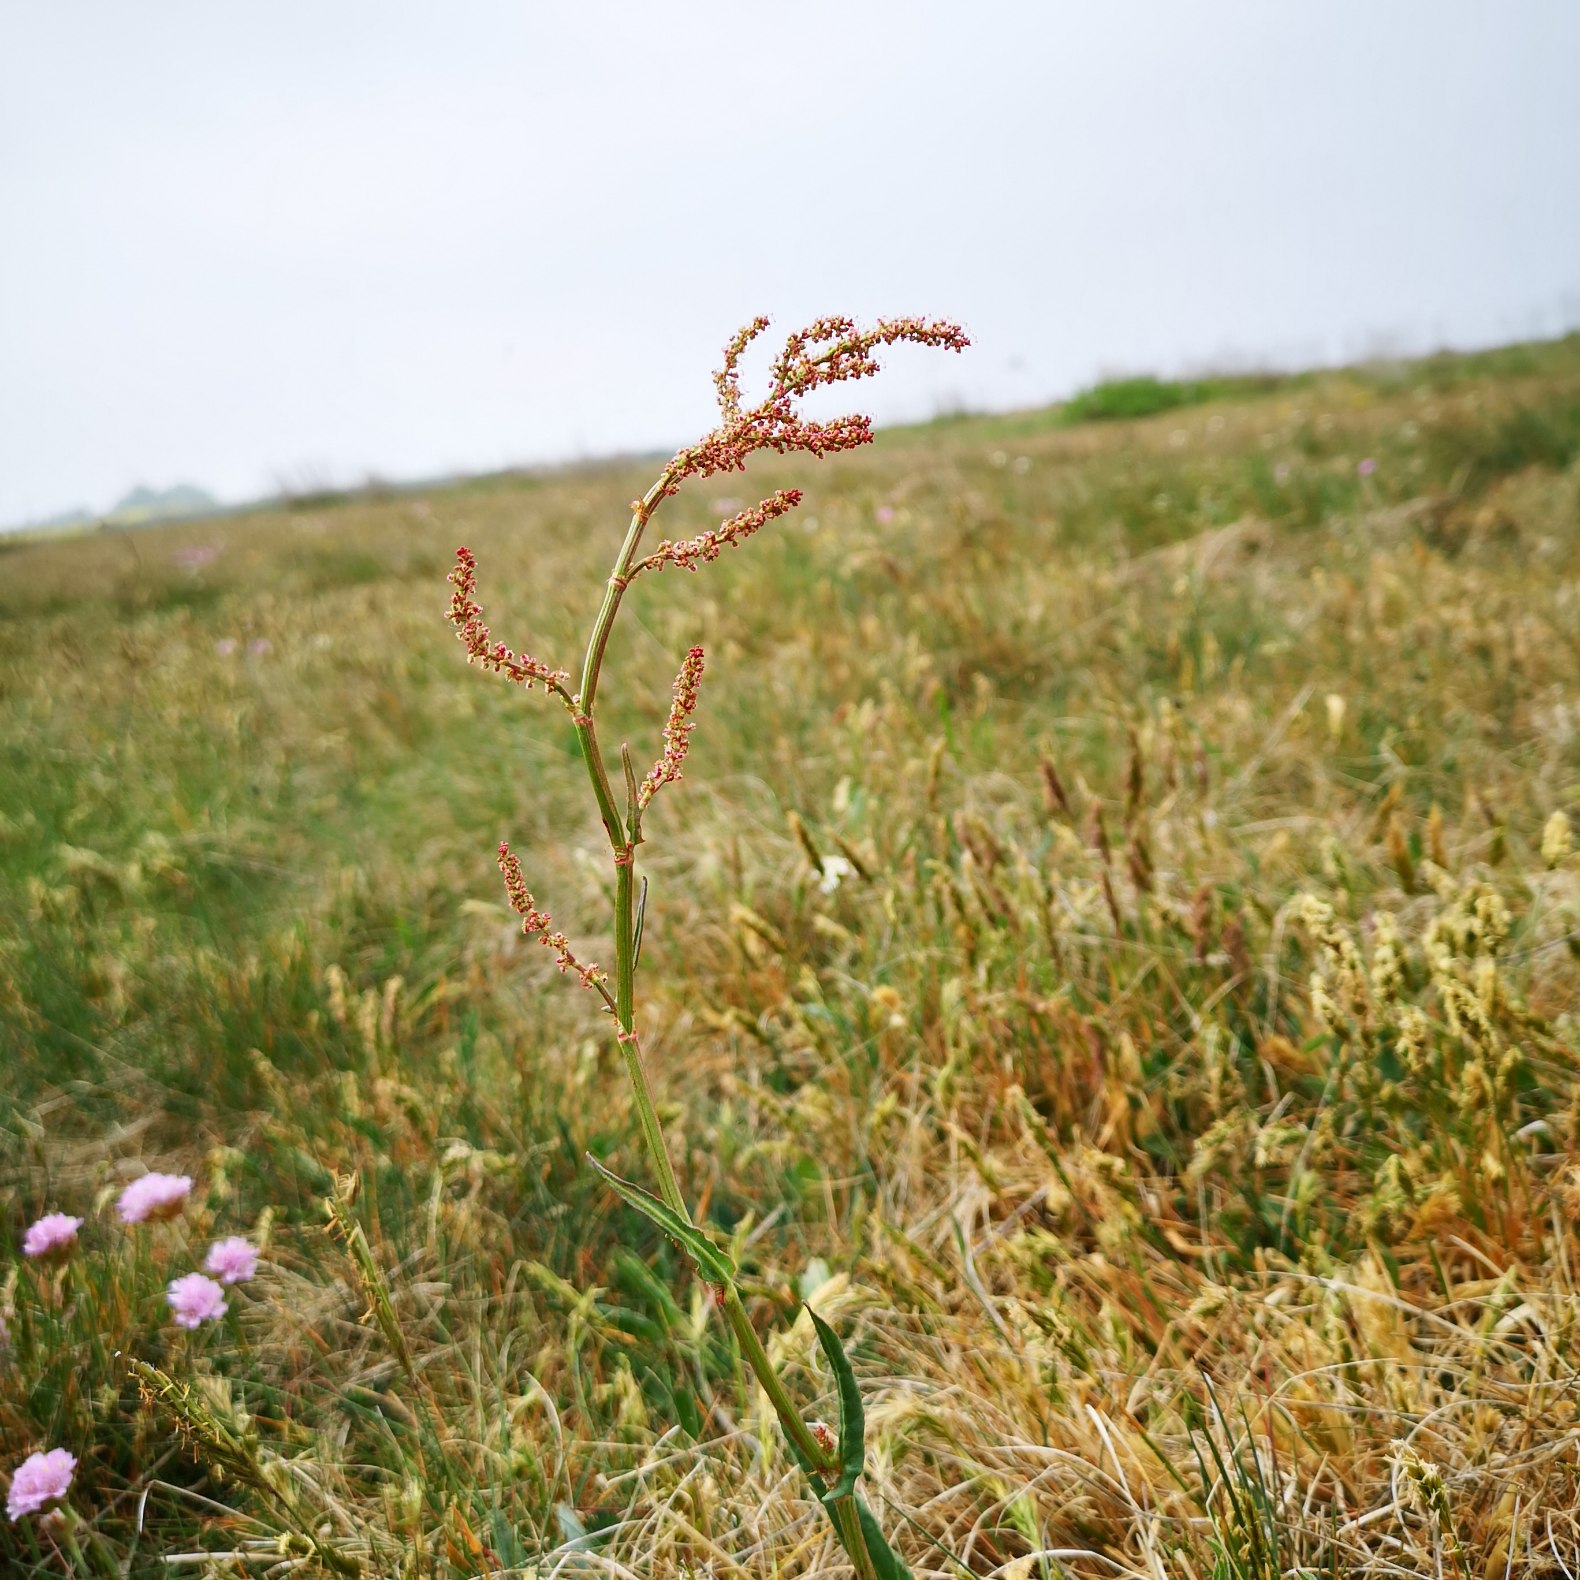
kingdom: Plantae
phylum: Tracheophyta
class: Magnoliopsida
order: Caryophyllales
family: Polygonaceae
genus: Rumex
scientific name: Rumex acetosa
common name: Almindelig syre
